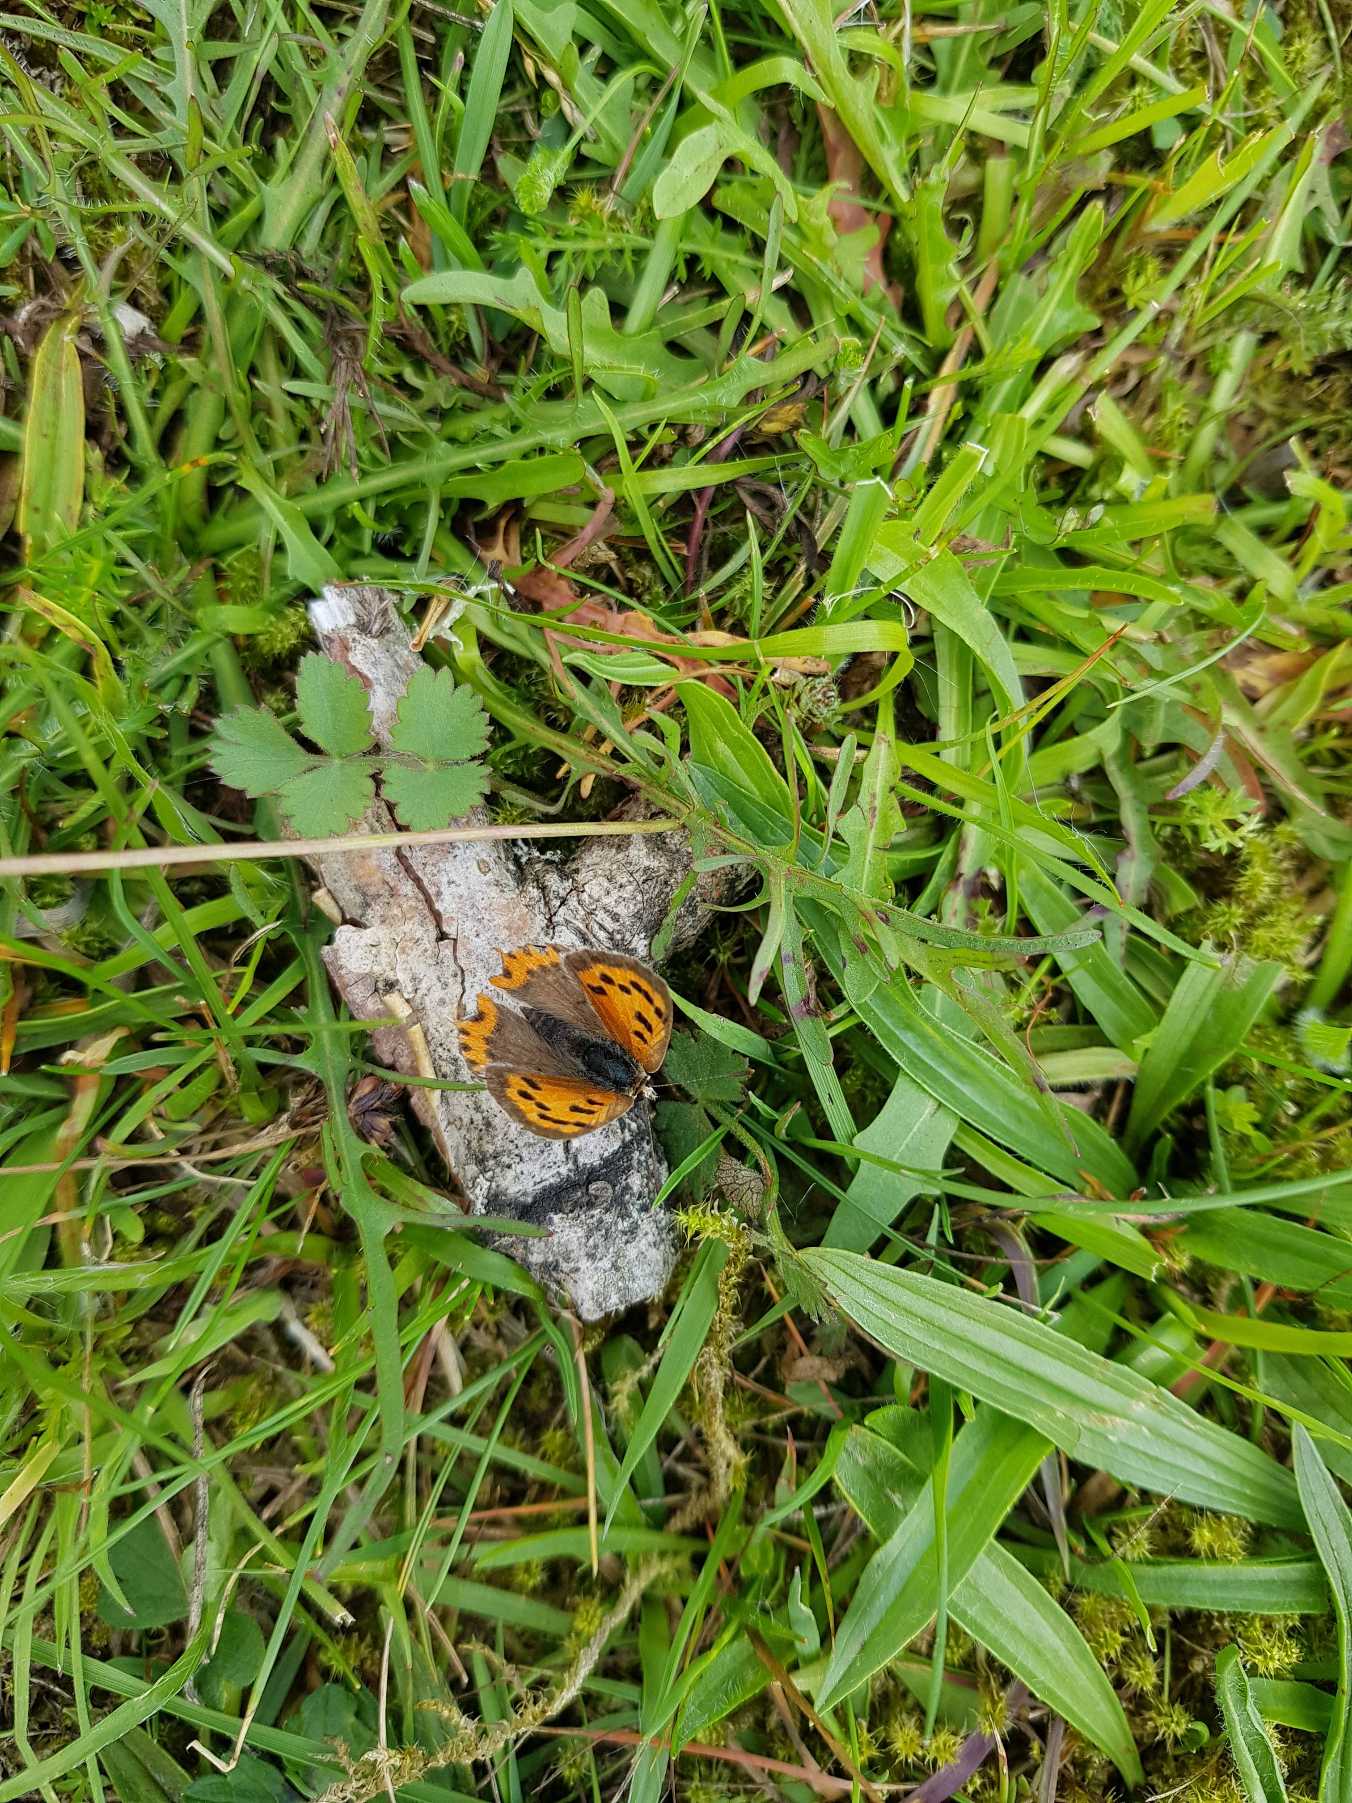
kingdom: Animalia
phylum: Arthropoda
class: Insecta
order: Lepidoptera
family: Lycaenidae
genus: Lycaena
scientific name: Lycaena phlaeas
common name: Lille ildfugl
